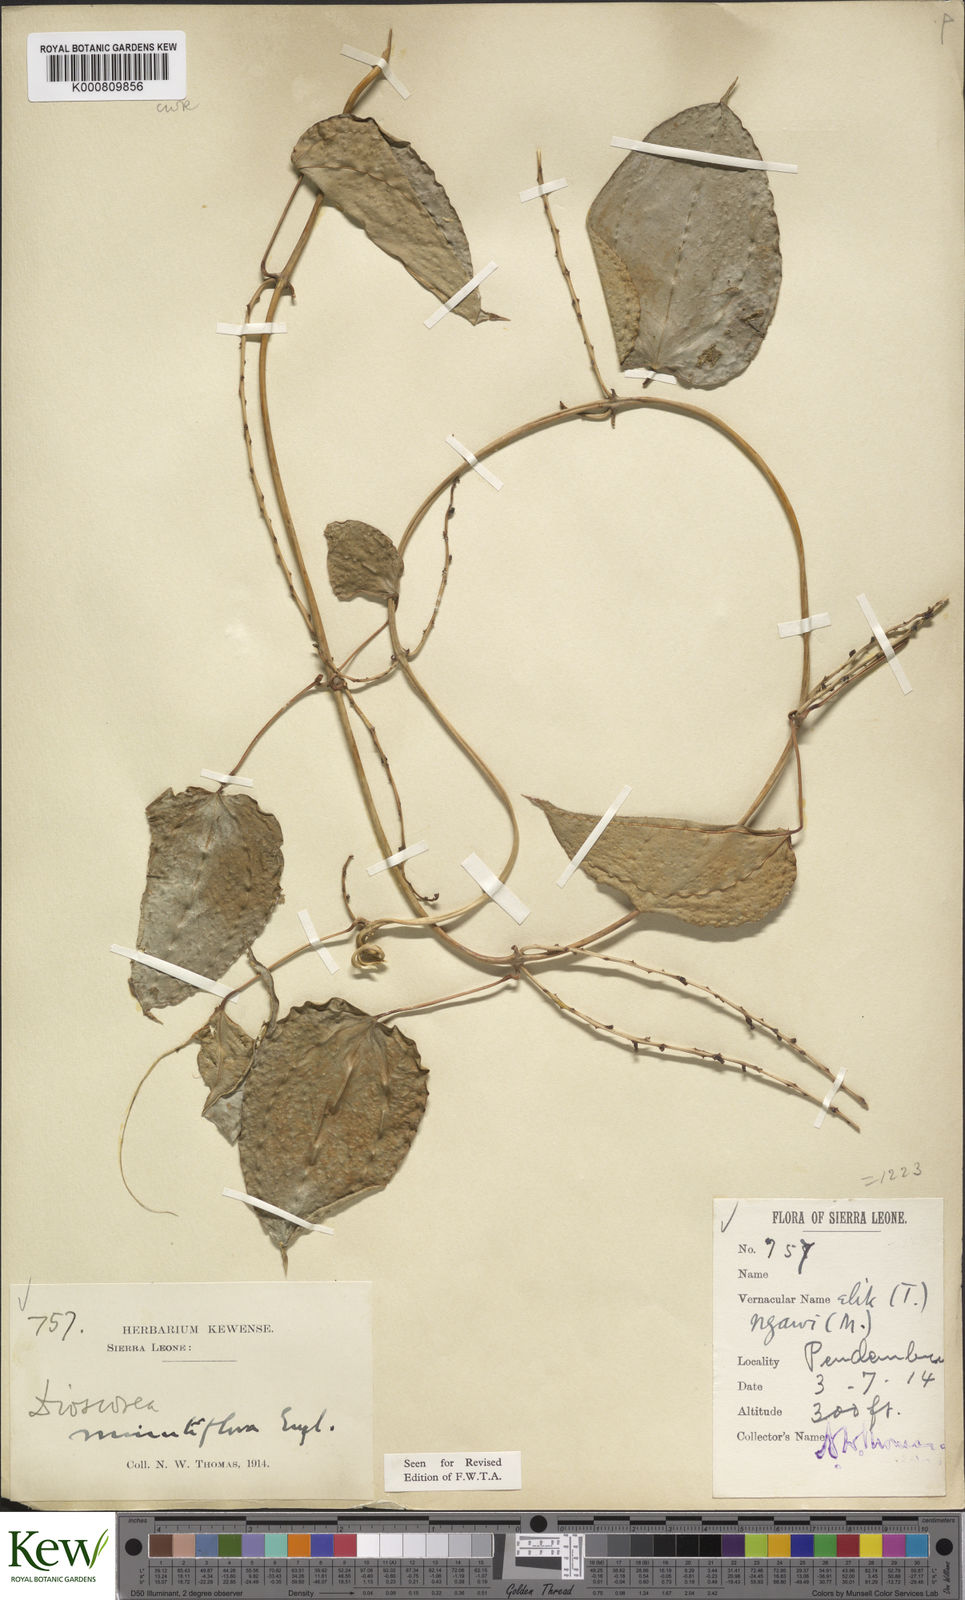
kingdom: Plantae
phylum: Tracheophyta
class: Liliopsida
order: Dioscoreales
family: Dioscoreaceae
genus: Dioscorea
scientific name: Dioscorea minutiflora
